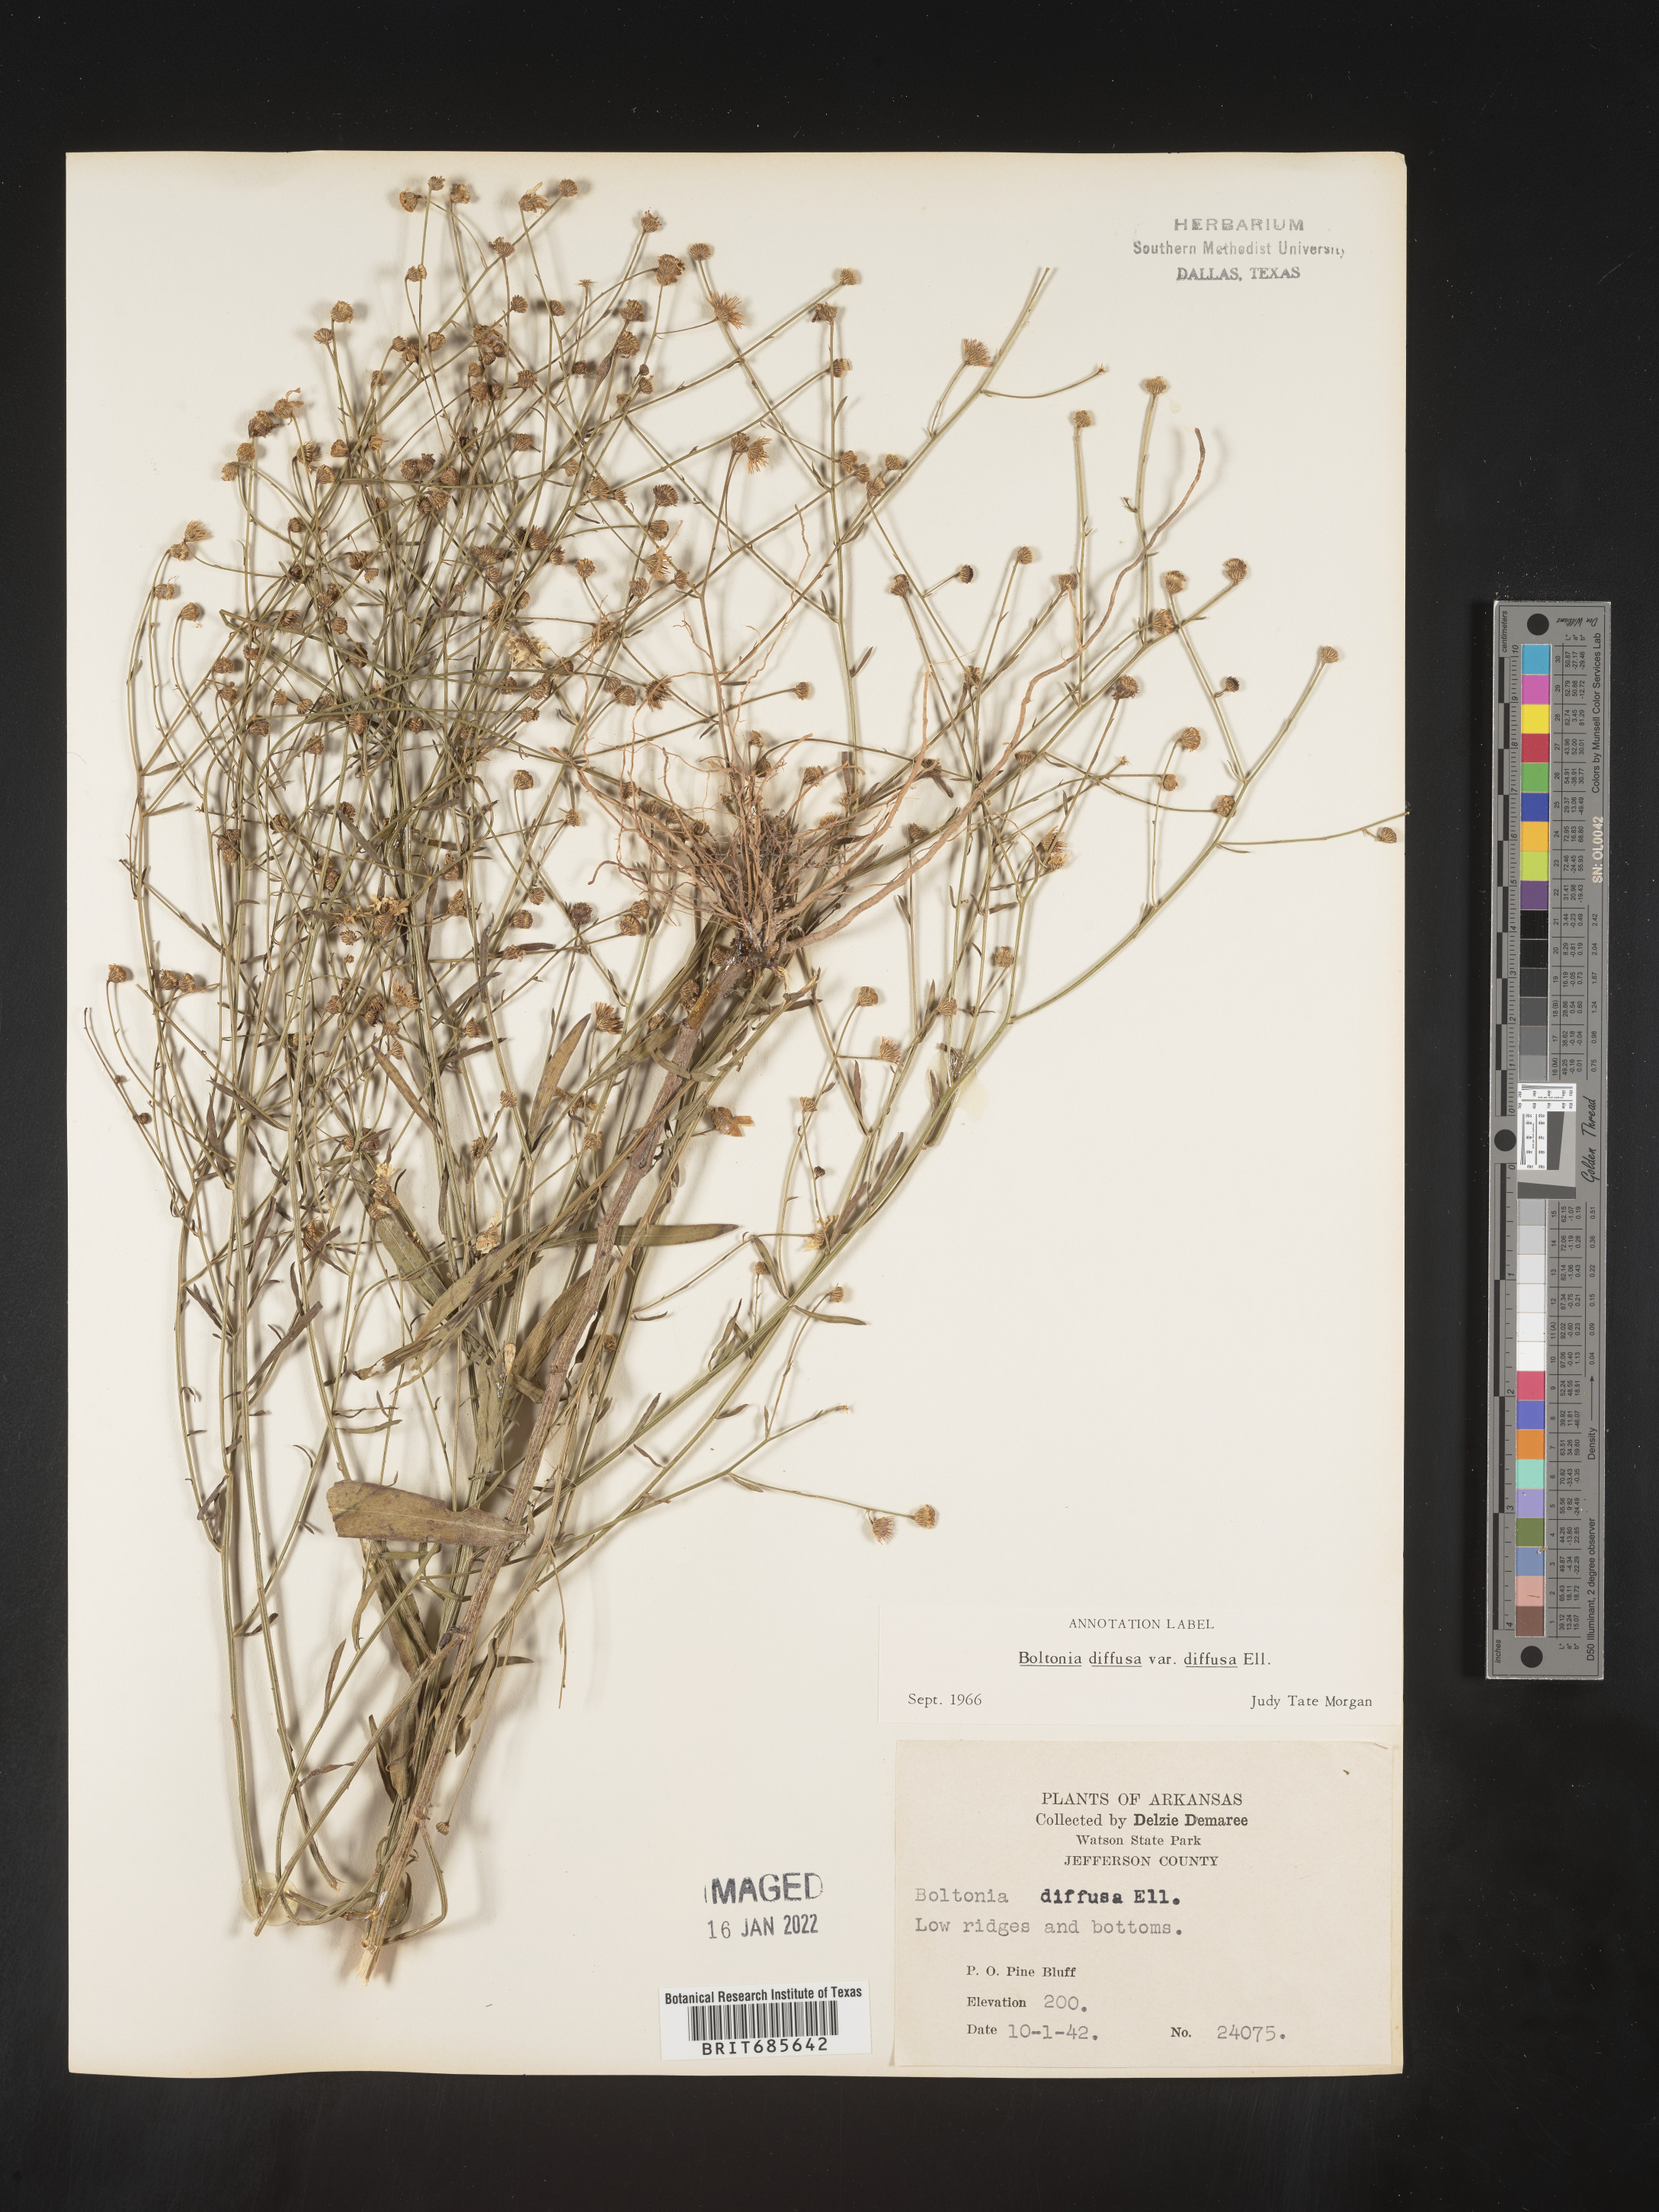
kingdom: Plantae
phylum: Tracheophyta
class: Magnoliopsida
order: Asterales
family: Asteraceae
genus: Boltonia
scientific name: Boltonia diffusa
